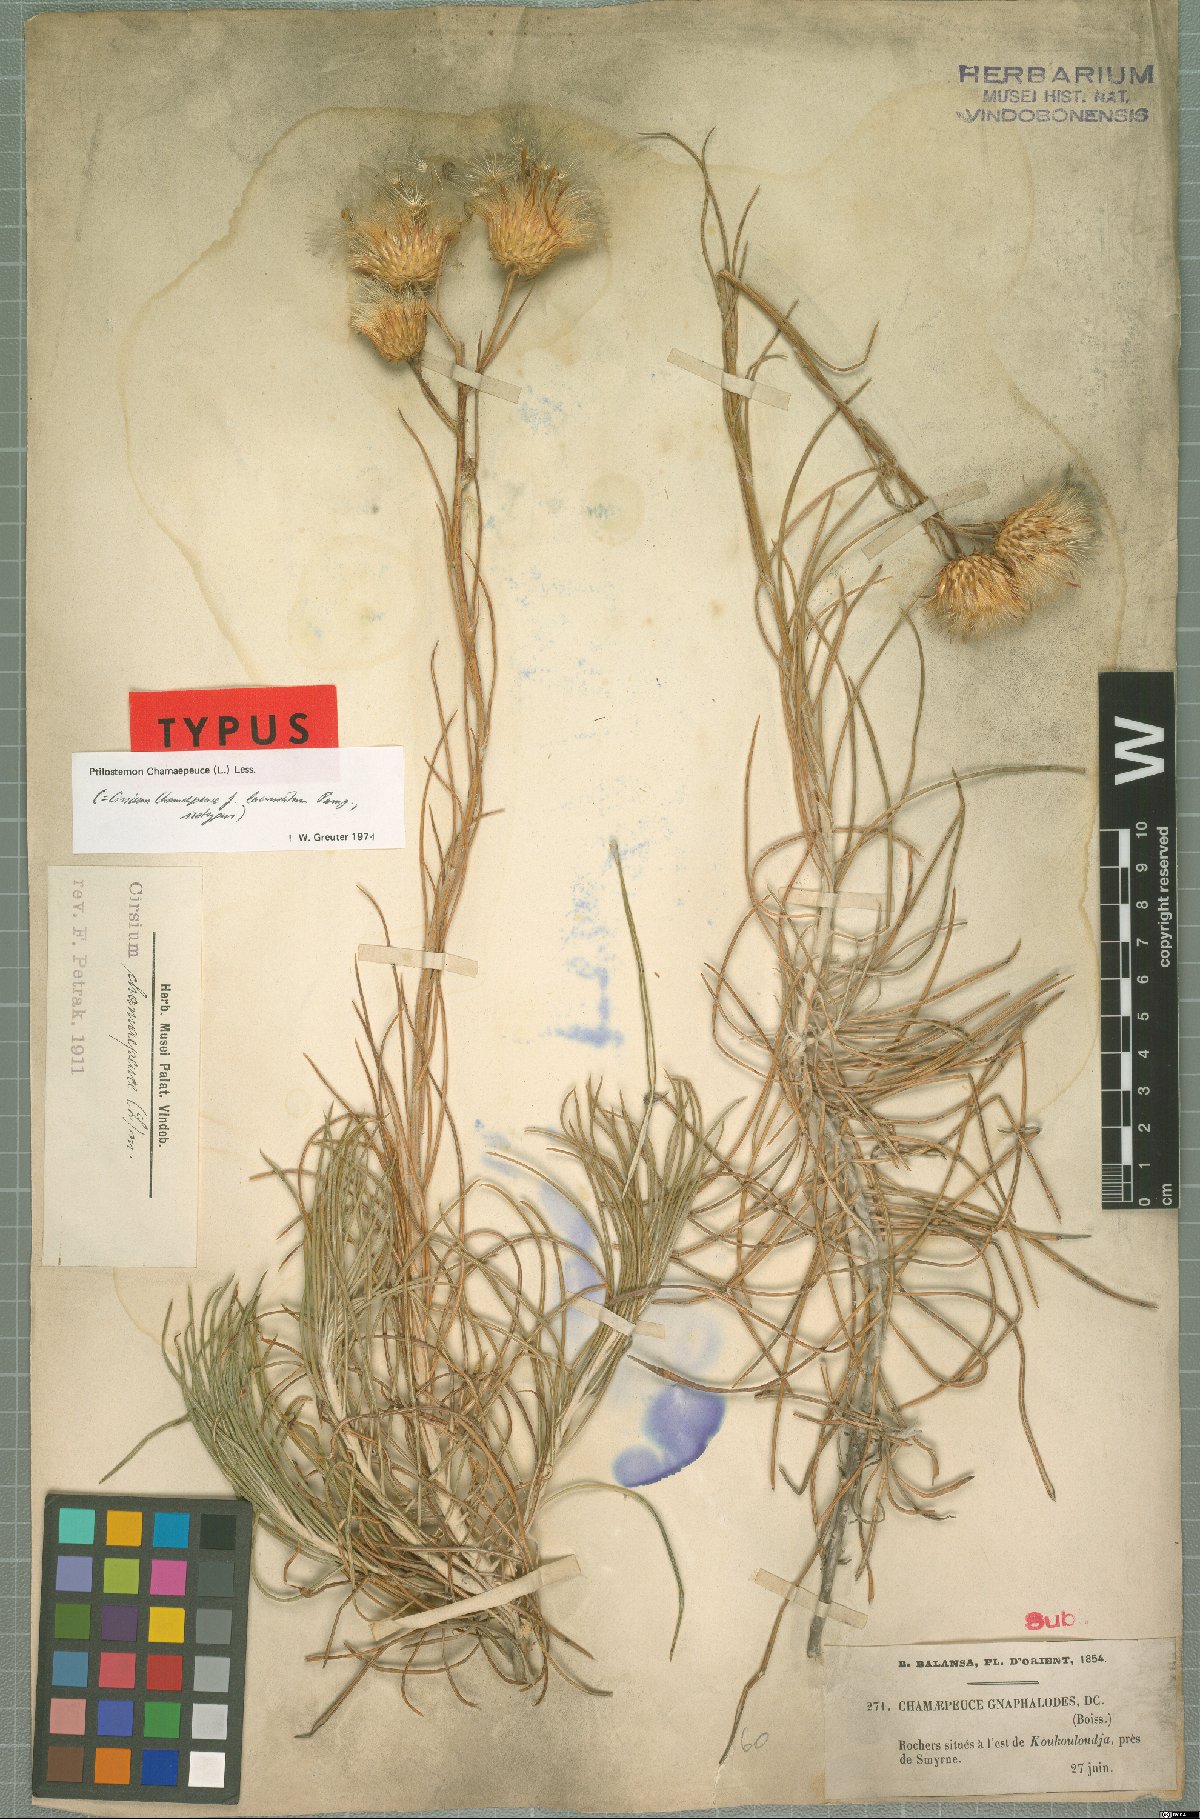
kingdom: Plantae
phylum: Tracheophyta
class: Magnoliopsida
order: Asterales
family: Asteraceae
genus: Ptilostemon
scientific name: Ptilostemon chamaepeuce
